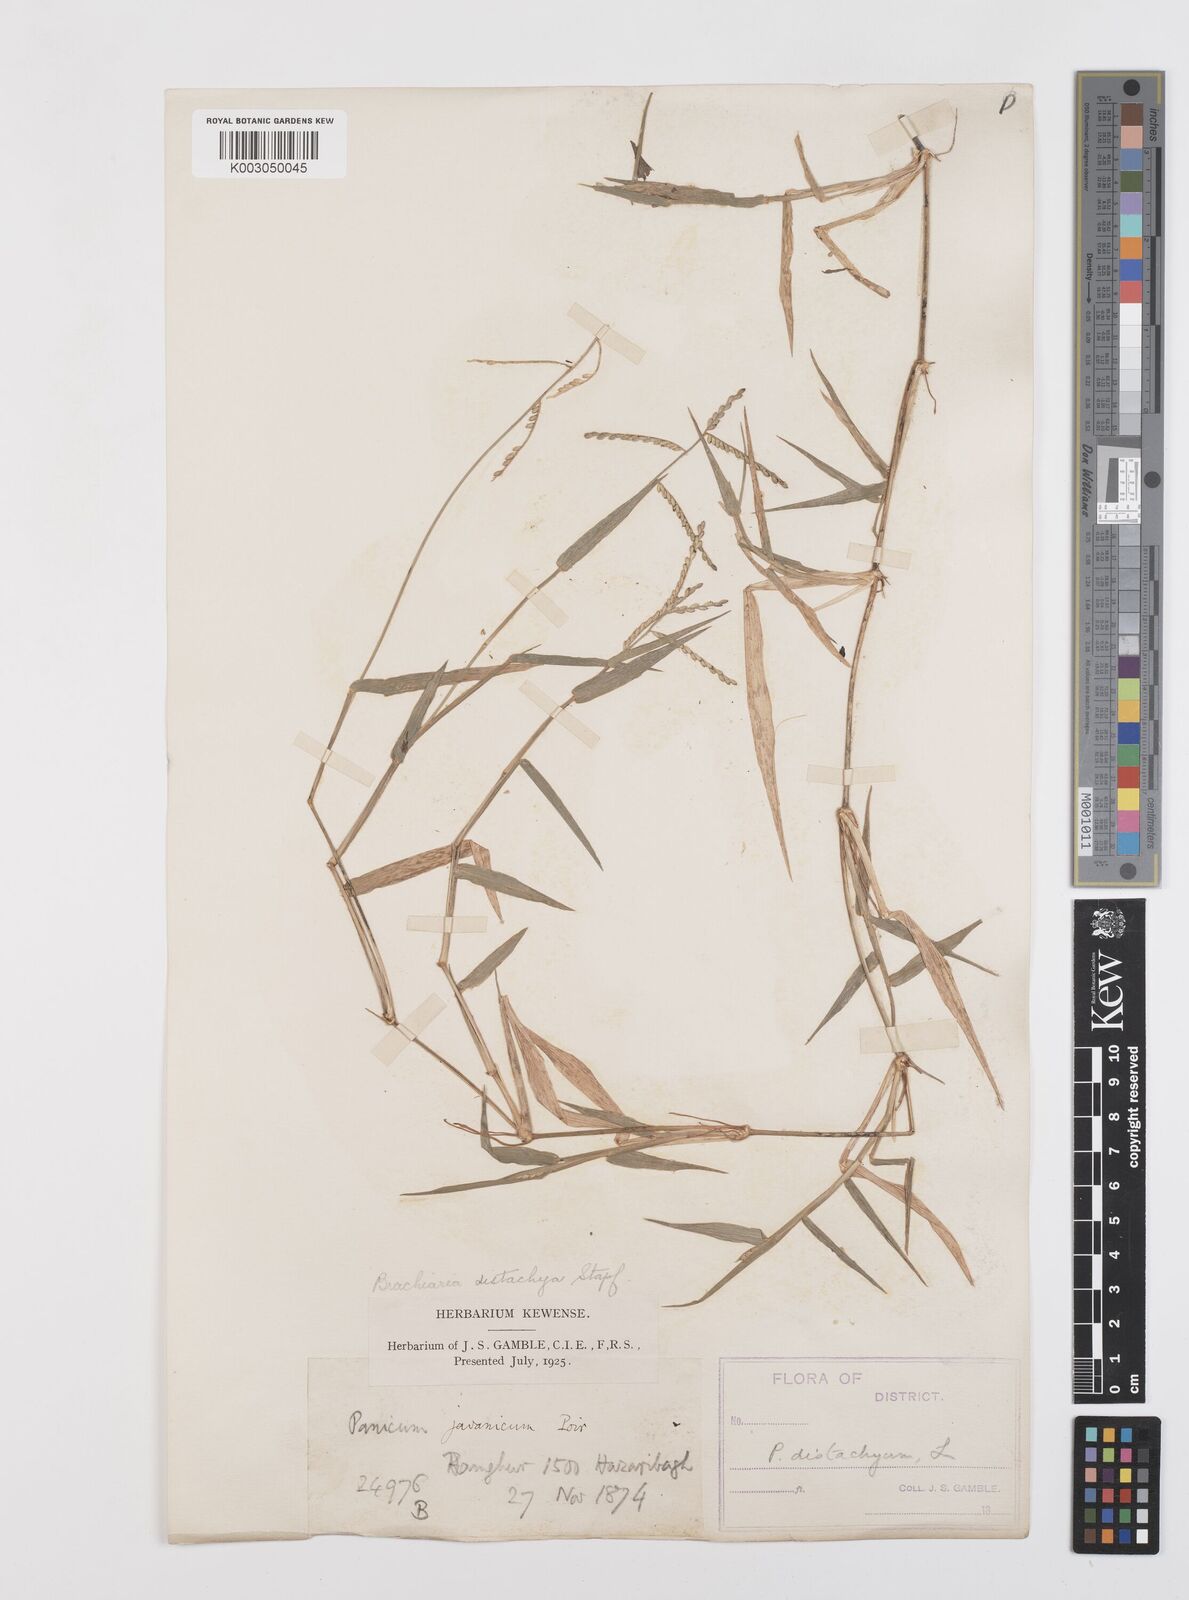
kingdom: Plantae
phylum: Tracheophyta
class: Liliopsida
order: Poales
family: Poaceae
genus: Urochloa
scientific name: Urochloa distachyos
